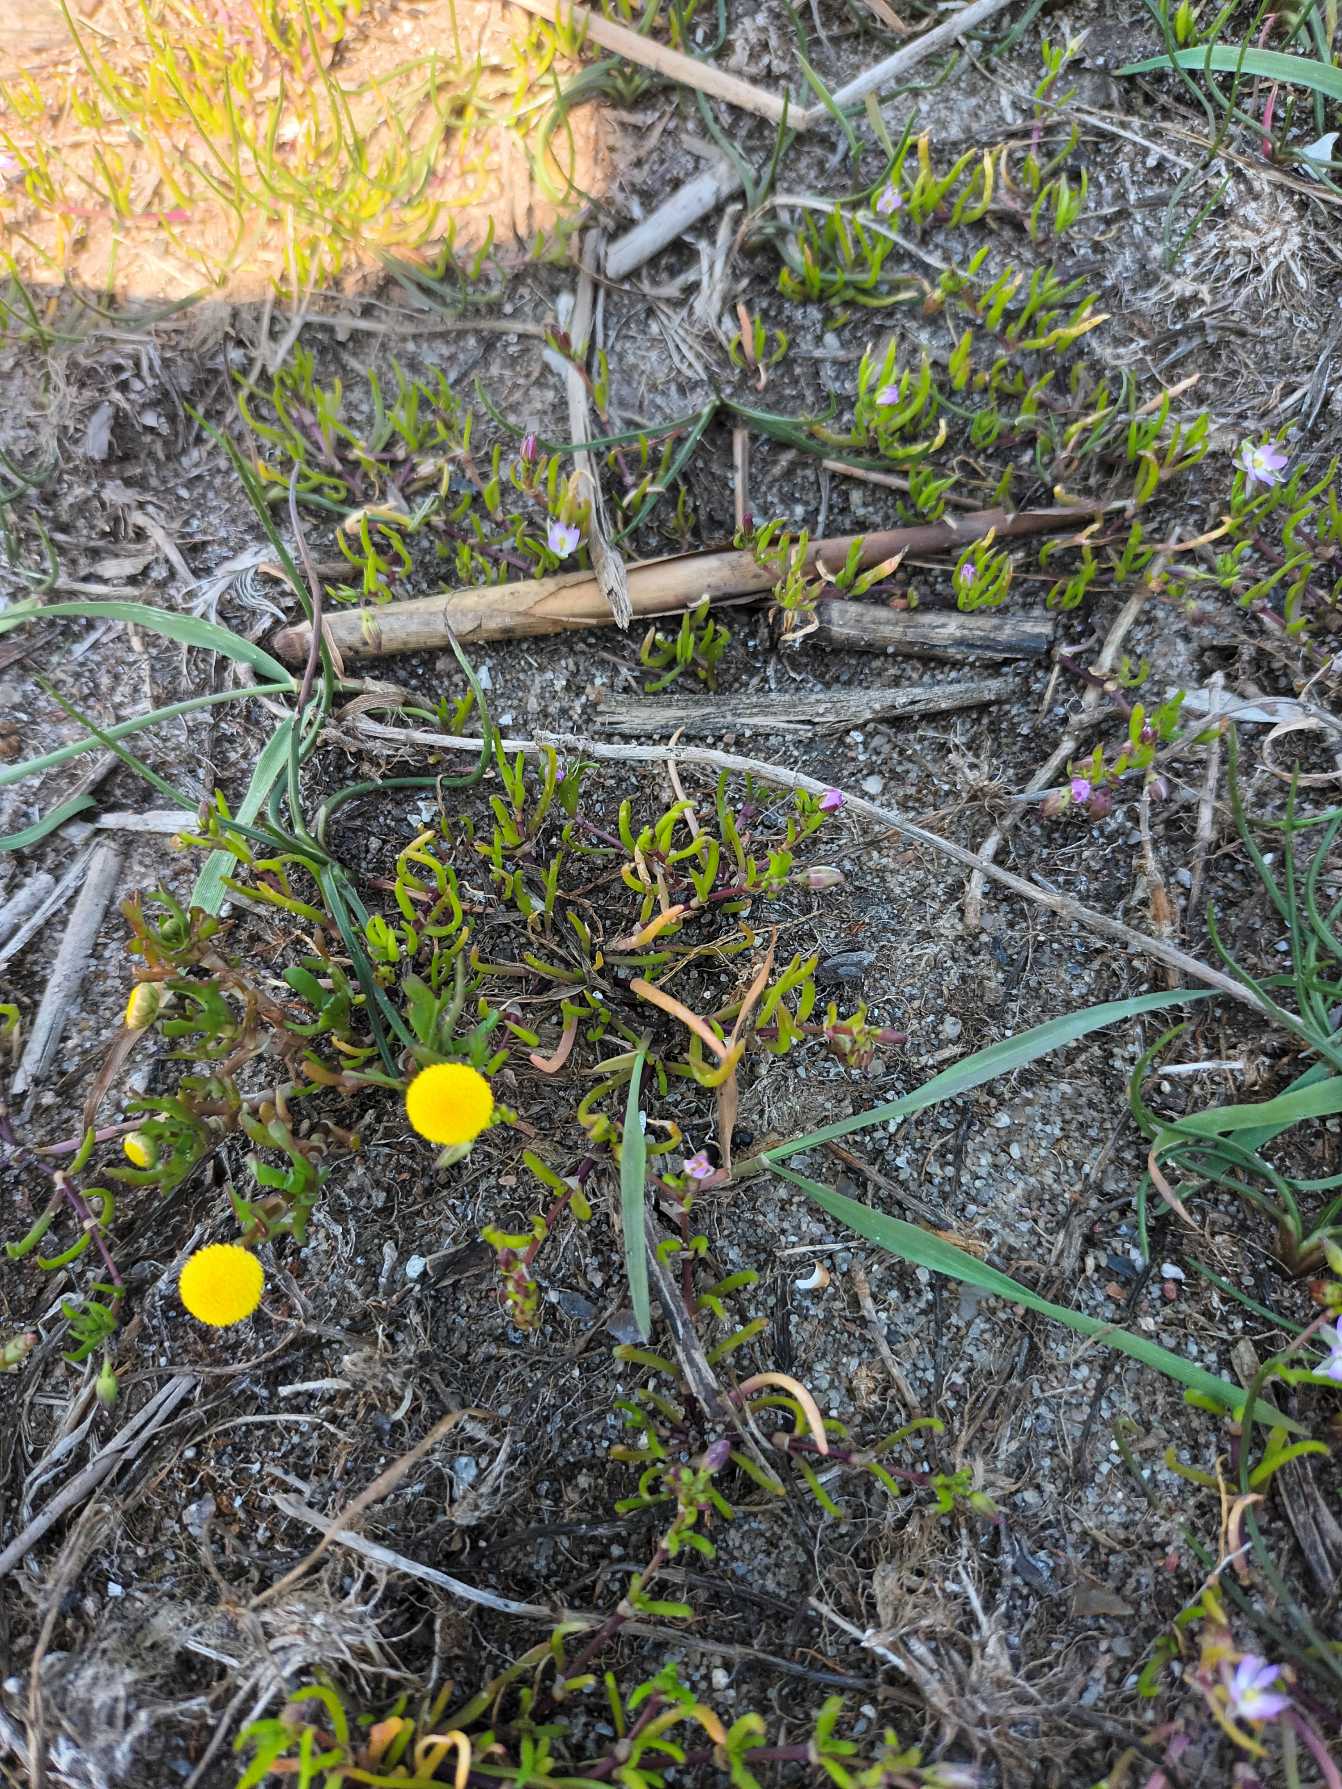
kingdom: Plantae
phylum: Tracheophyta
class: Magnoliopsida
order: Asterales
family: Asteraceae
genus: Cotula
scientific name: Cotula coronopifolia
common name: Firkløft
